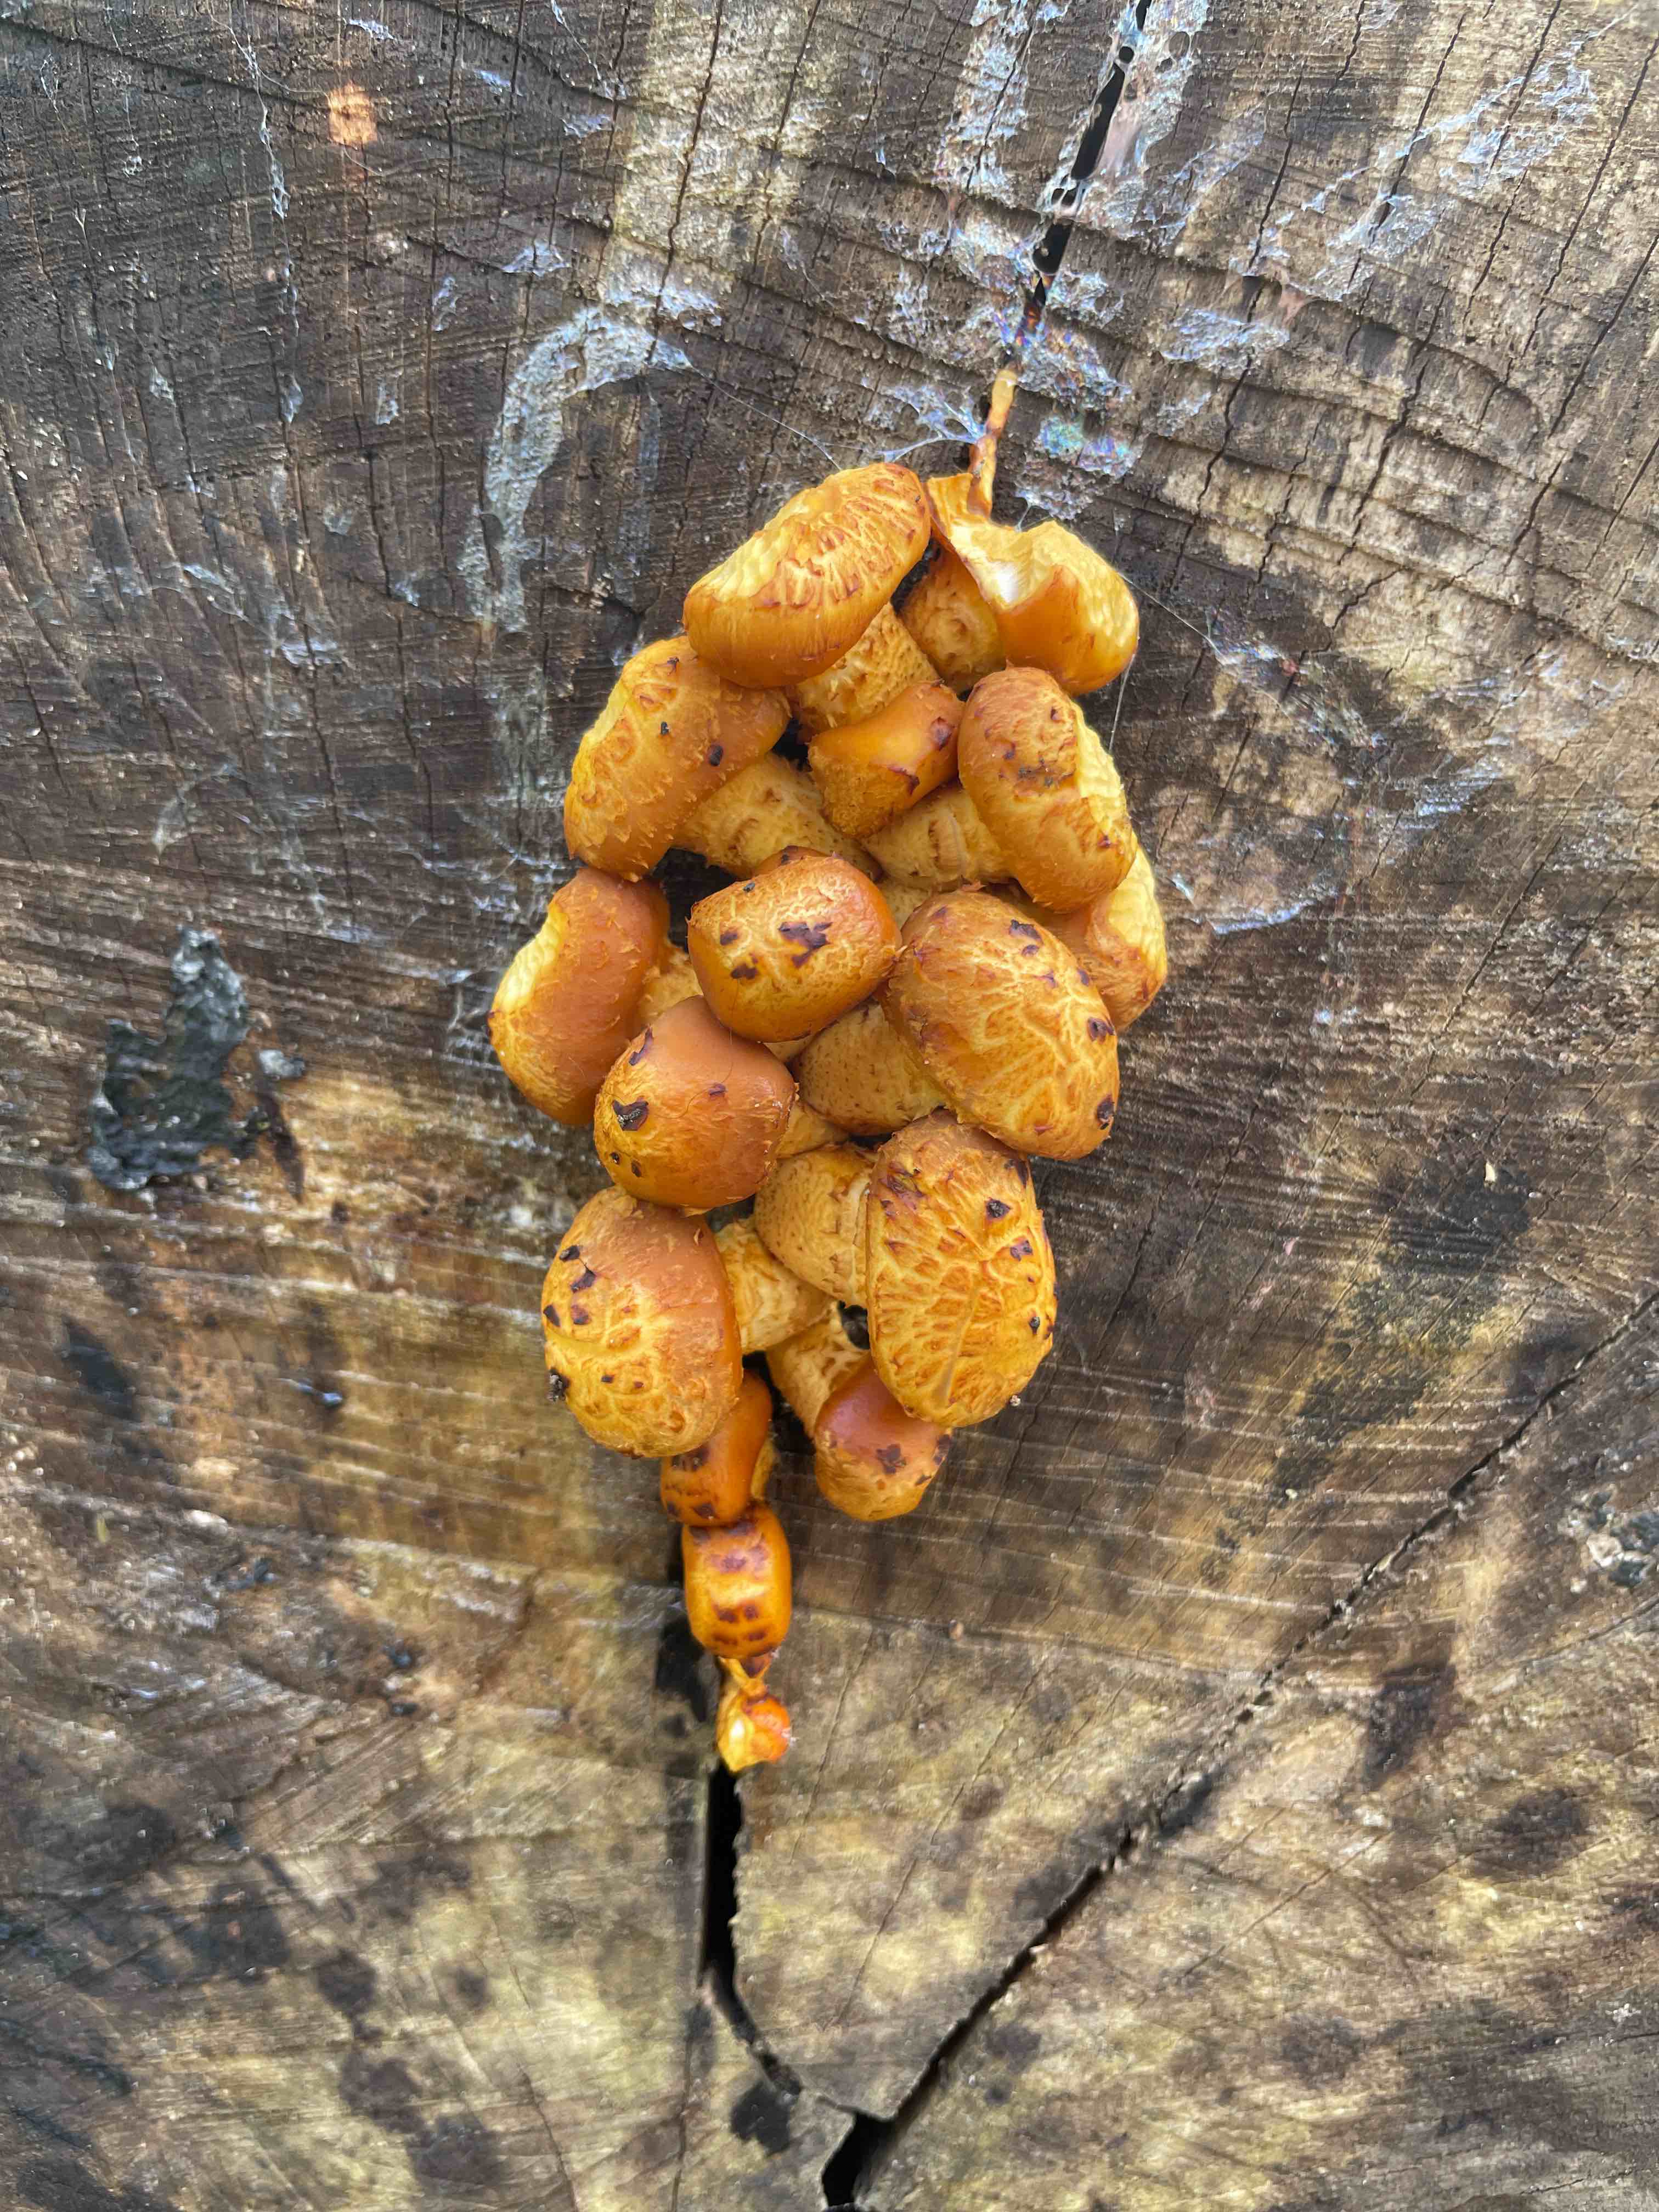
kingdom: Fungi
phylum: Basidiomycota
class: Agaricomycetes
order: Agaricales
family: Strophariaceae
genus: Pholiota
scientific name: Pholiota adiposa
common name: højtsiddende skælhat
